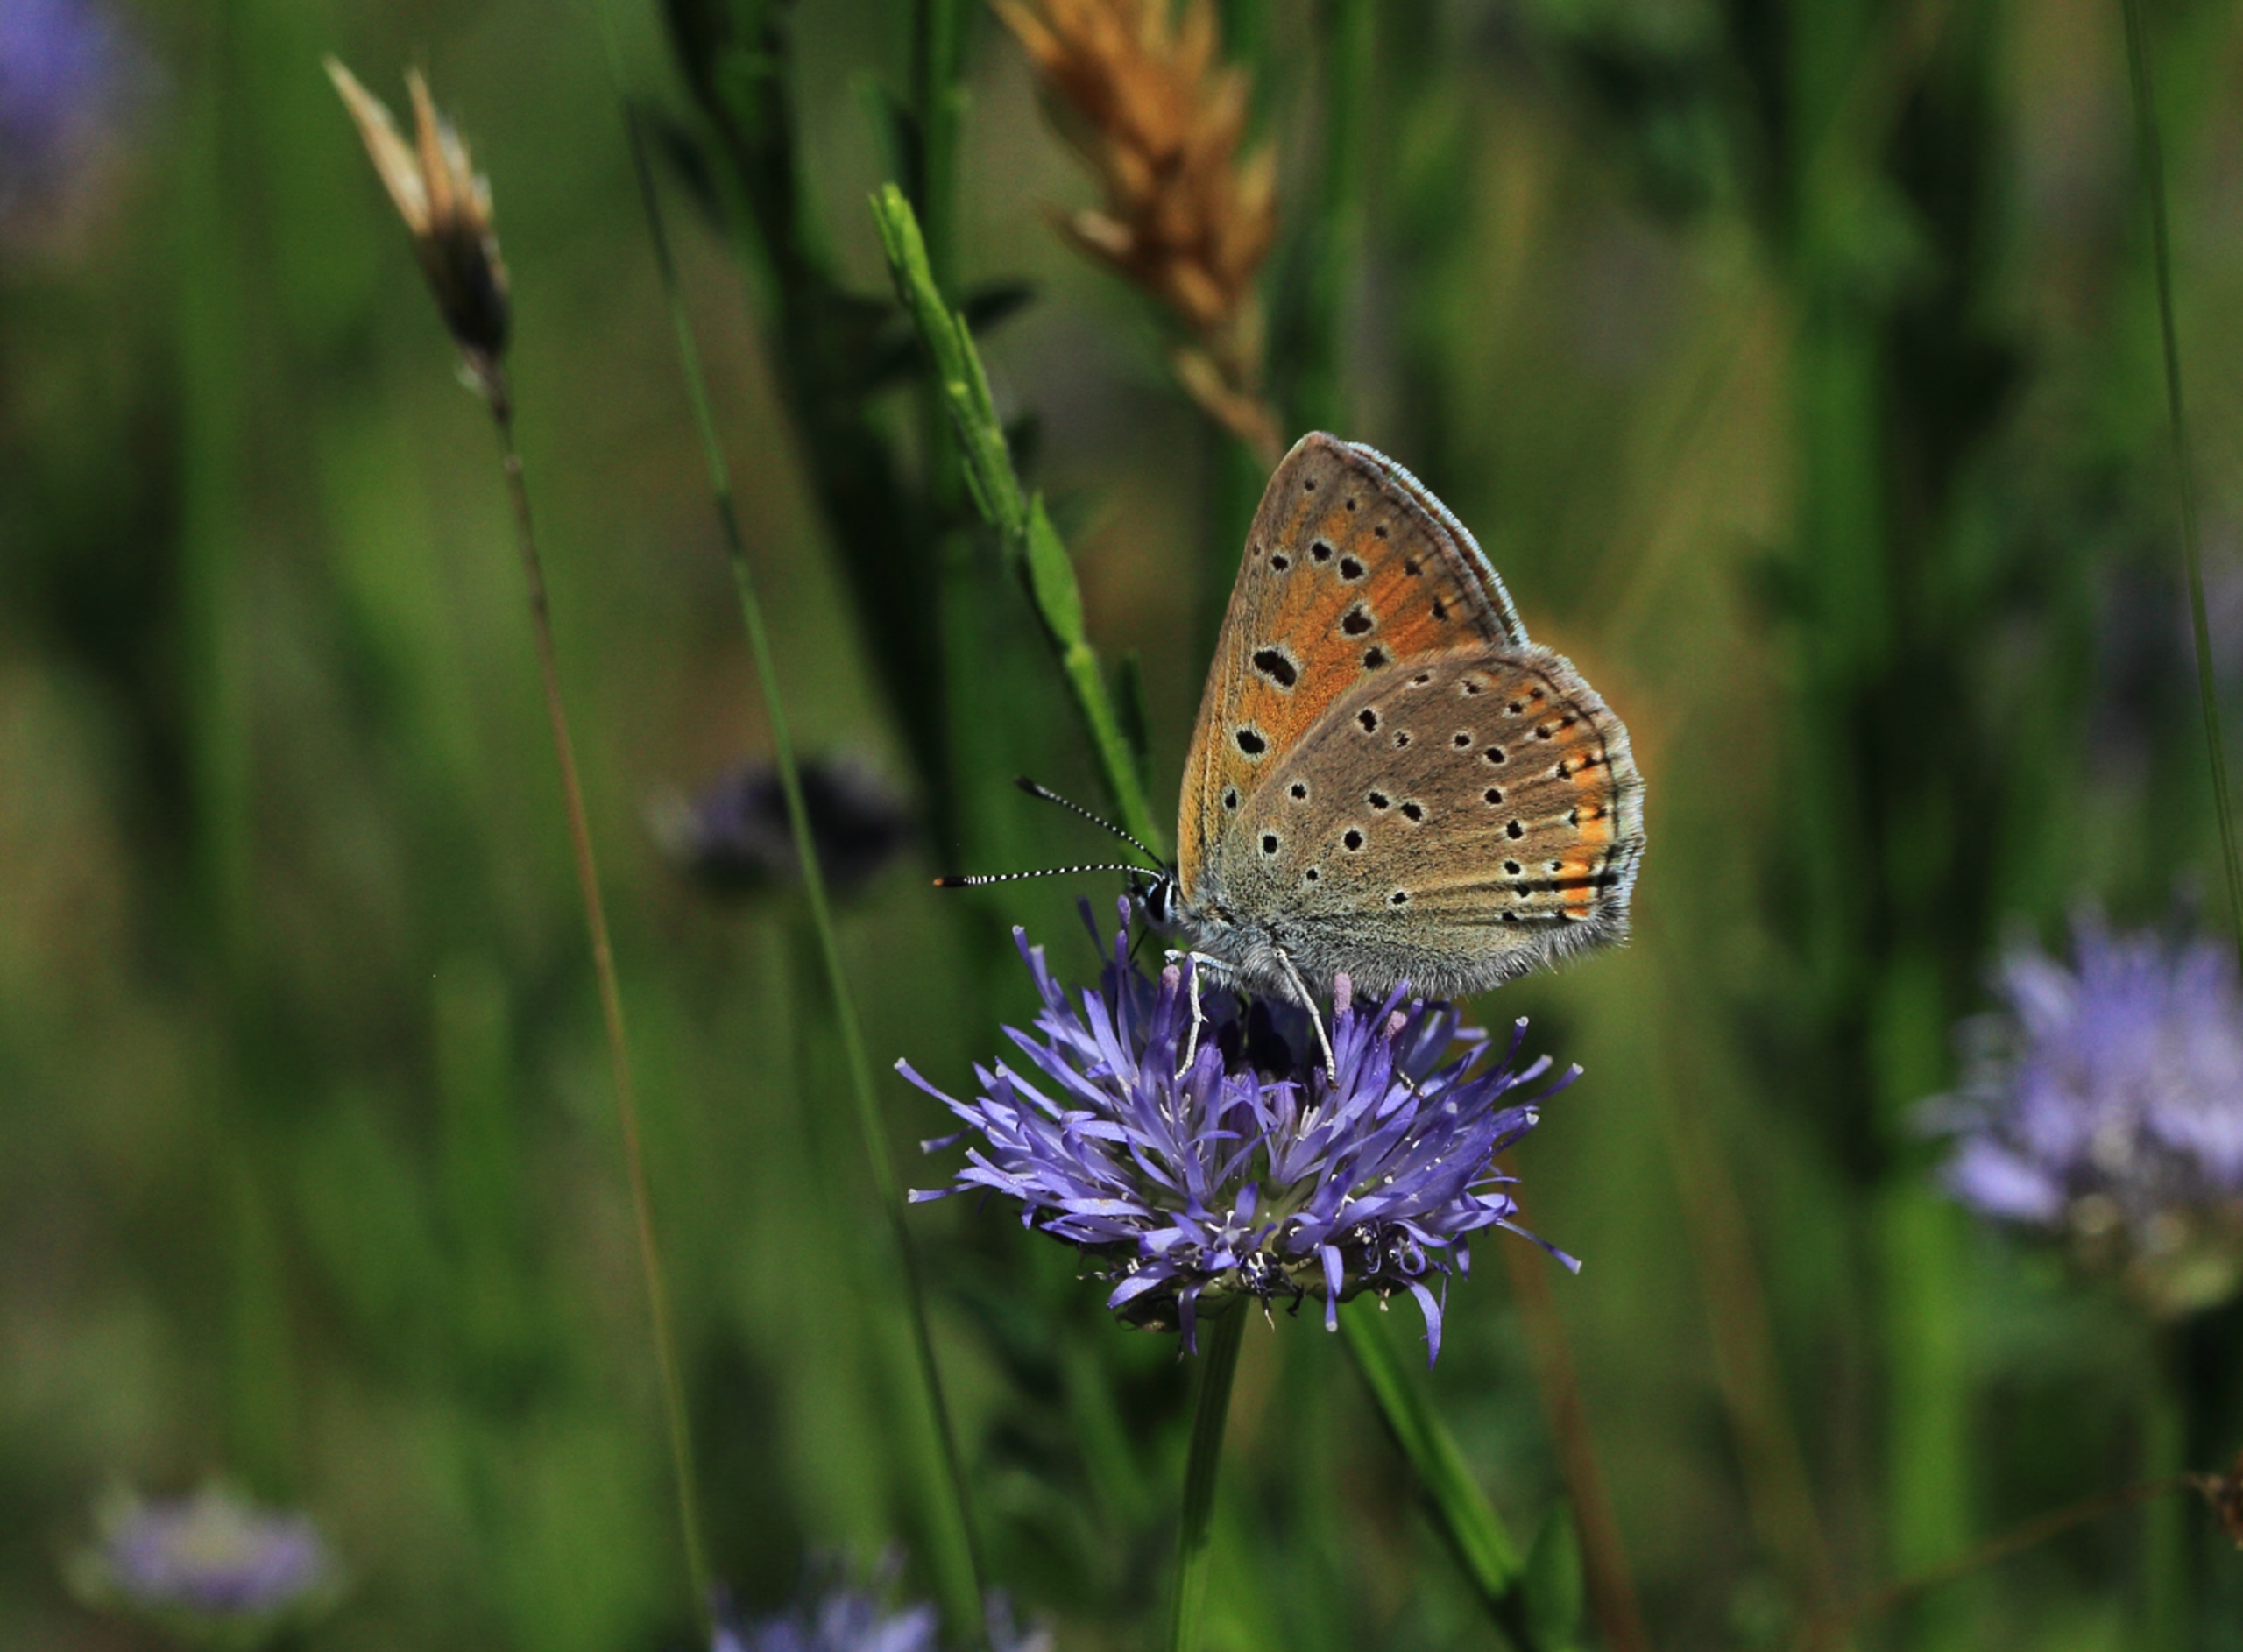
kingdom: Animalia
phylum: Arthropoda
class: Insecta
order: Lepidoptera
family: Lycaenidae
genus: Palaeochrysophanus
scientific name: Palaeochrysophanus hippothoe
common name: Violetrandet ildfugl
